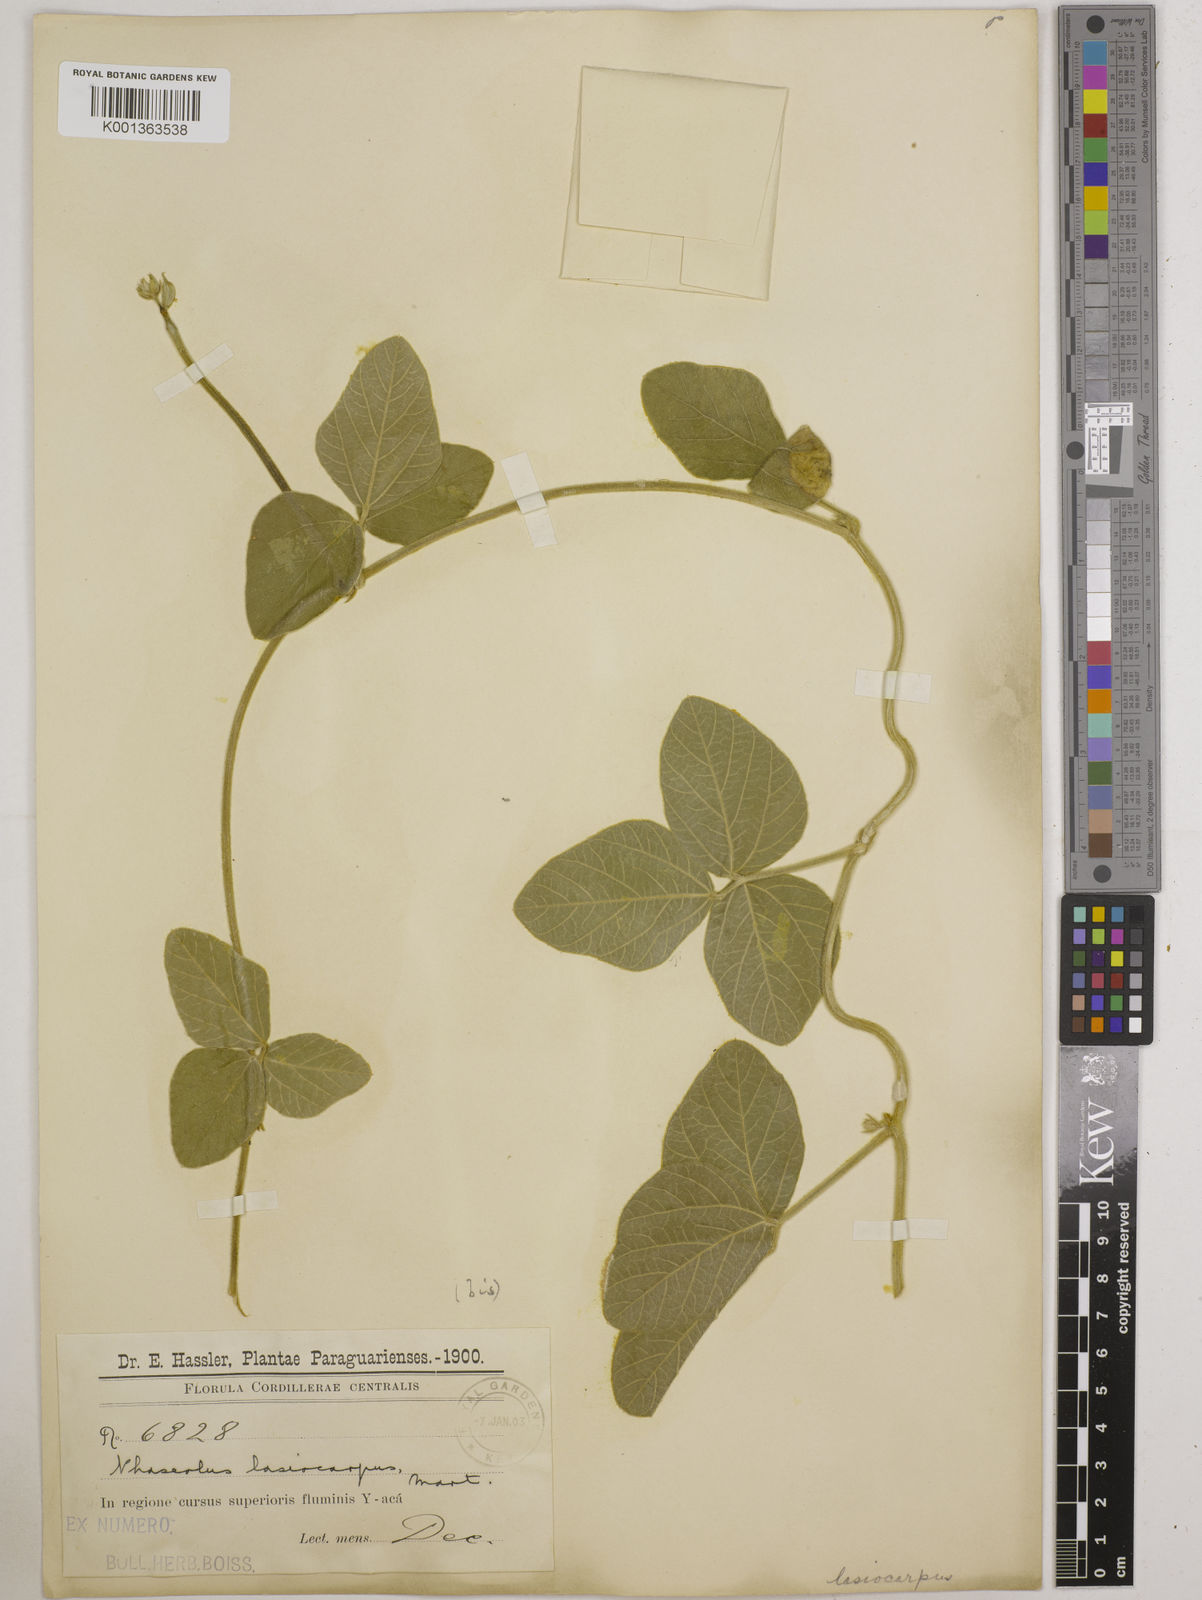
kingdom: Plantae
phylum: Tracheophyta
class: Magnoliopsida
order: Fabales
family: Fabaceae
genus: Vigna
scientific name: Vigna lasiocarpa
